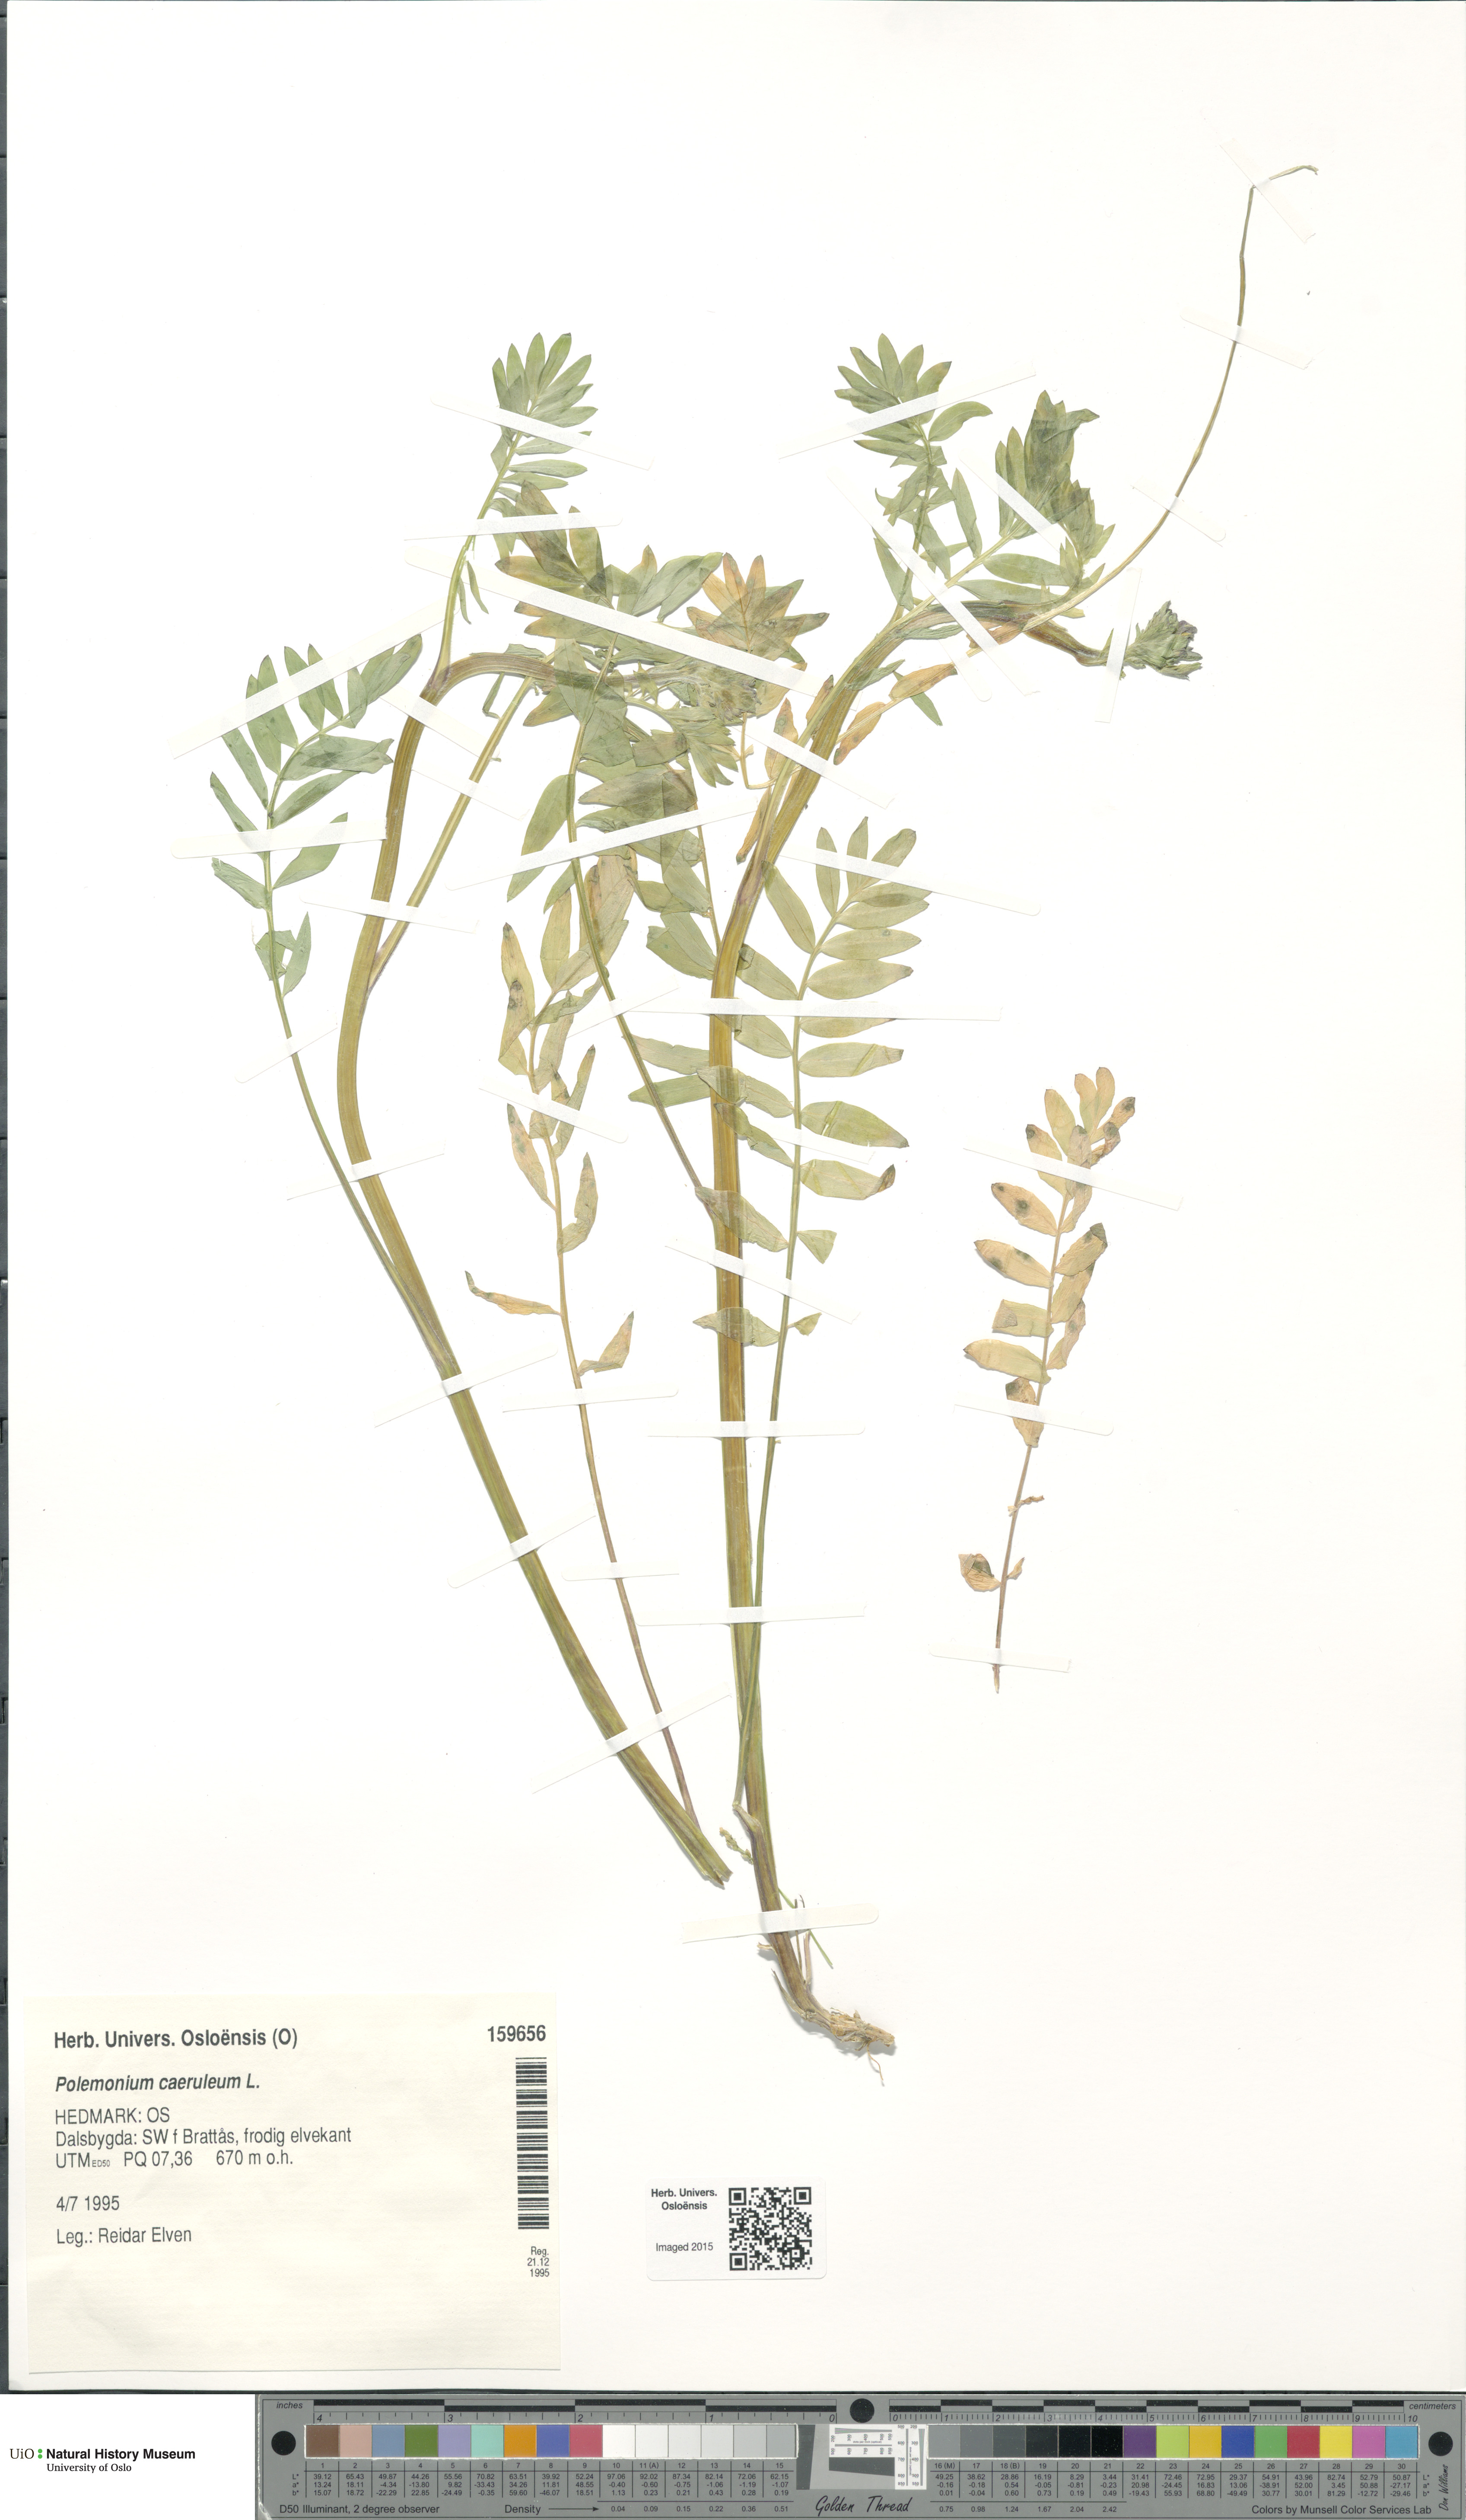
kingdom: Plantae
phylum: Tracheophyta
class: Magnoliopsida
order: Ericales
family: Polemoniaceae
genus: Polemonium
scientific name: Polemonium caeruleum
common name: Jacob's-ladder
